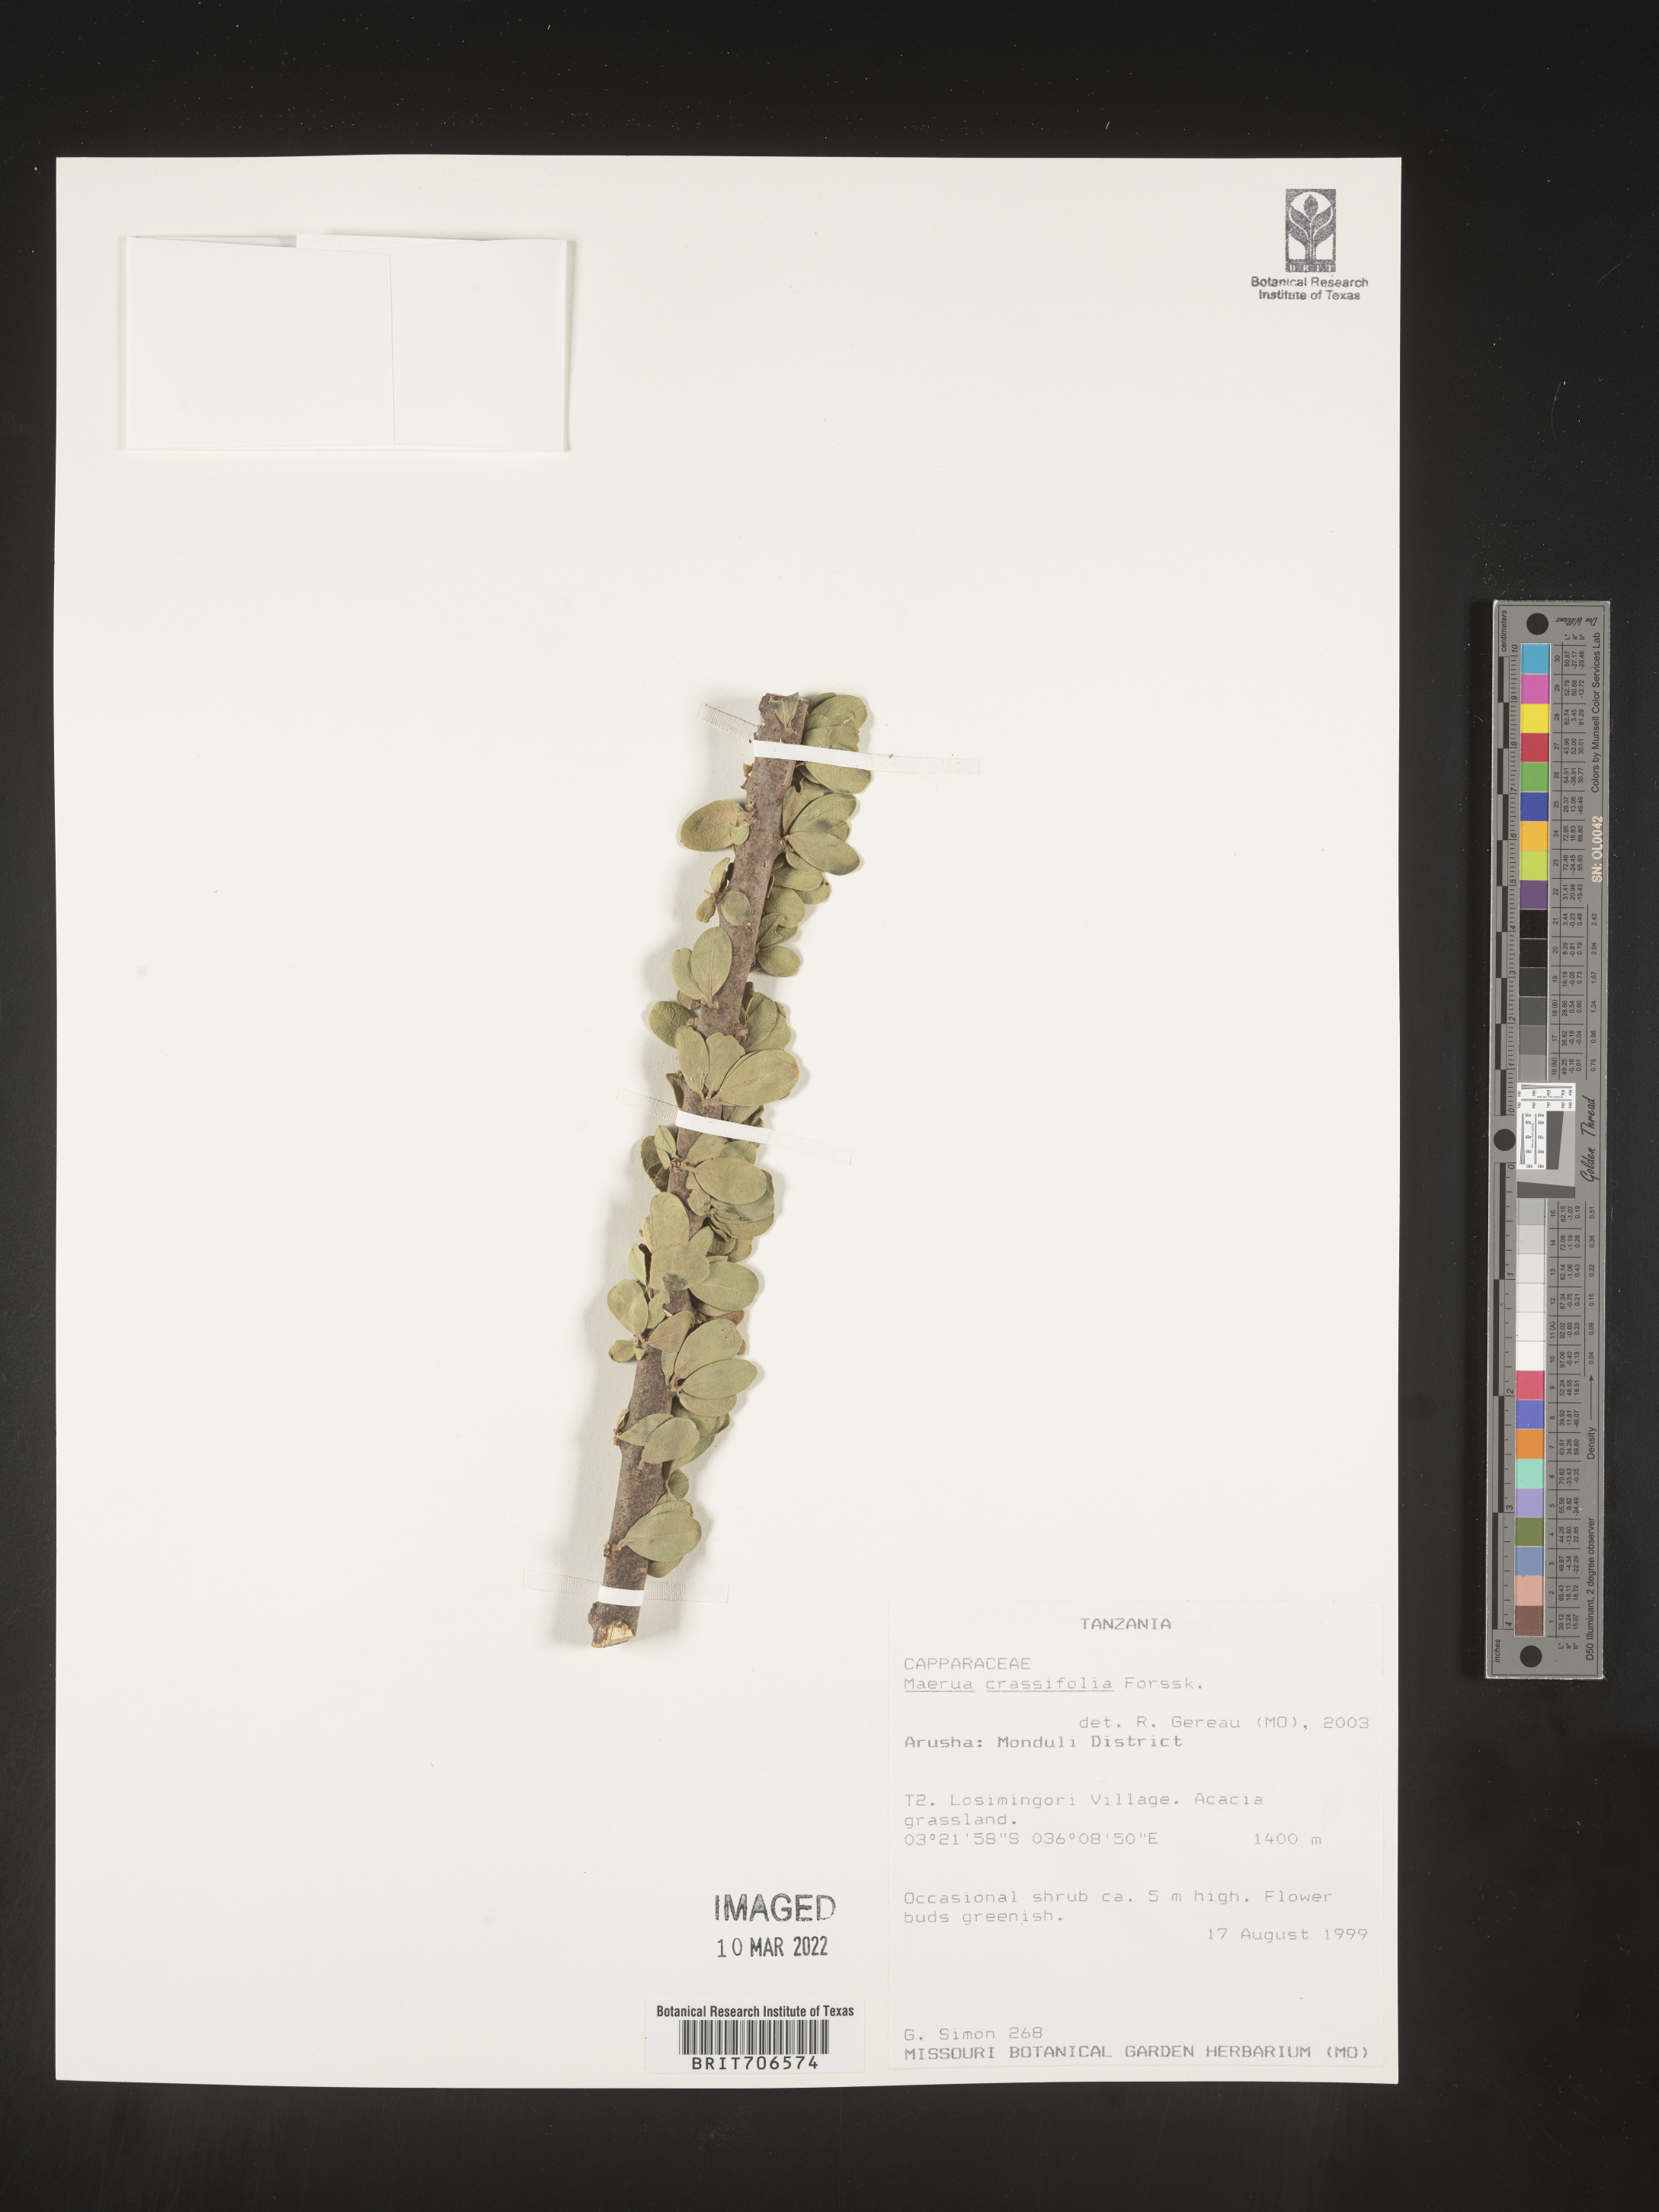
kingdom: Plantae
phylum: Tracheophyta
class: Magnoliopsida
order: Brassicales
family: Capparaceae
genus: Maerua
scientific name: Maerua
